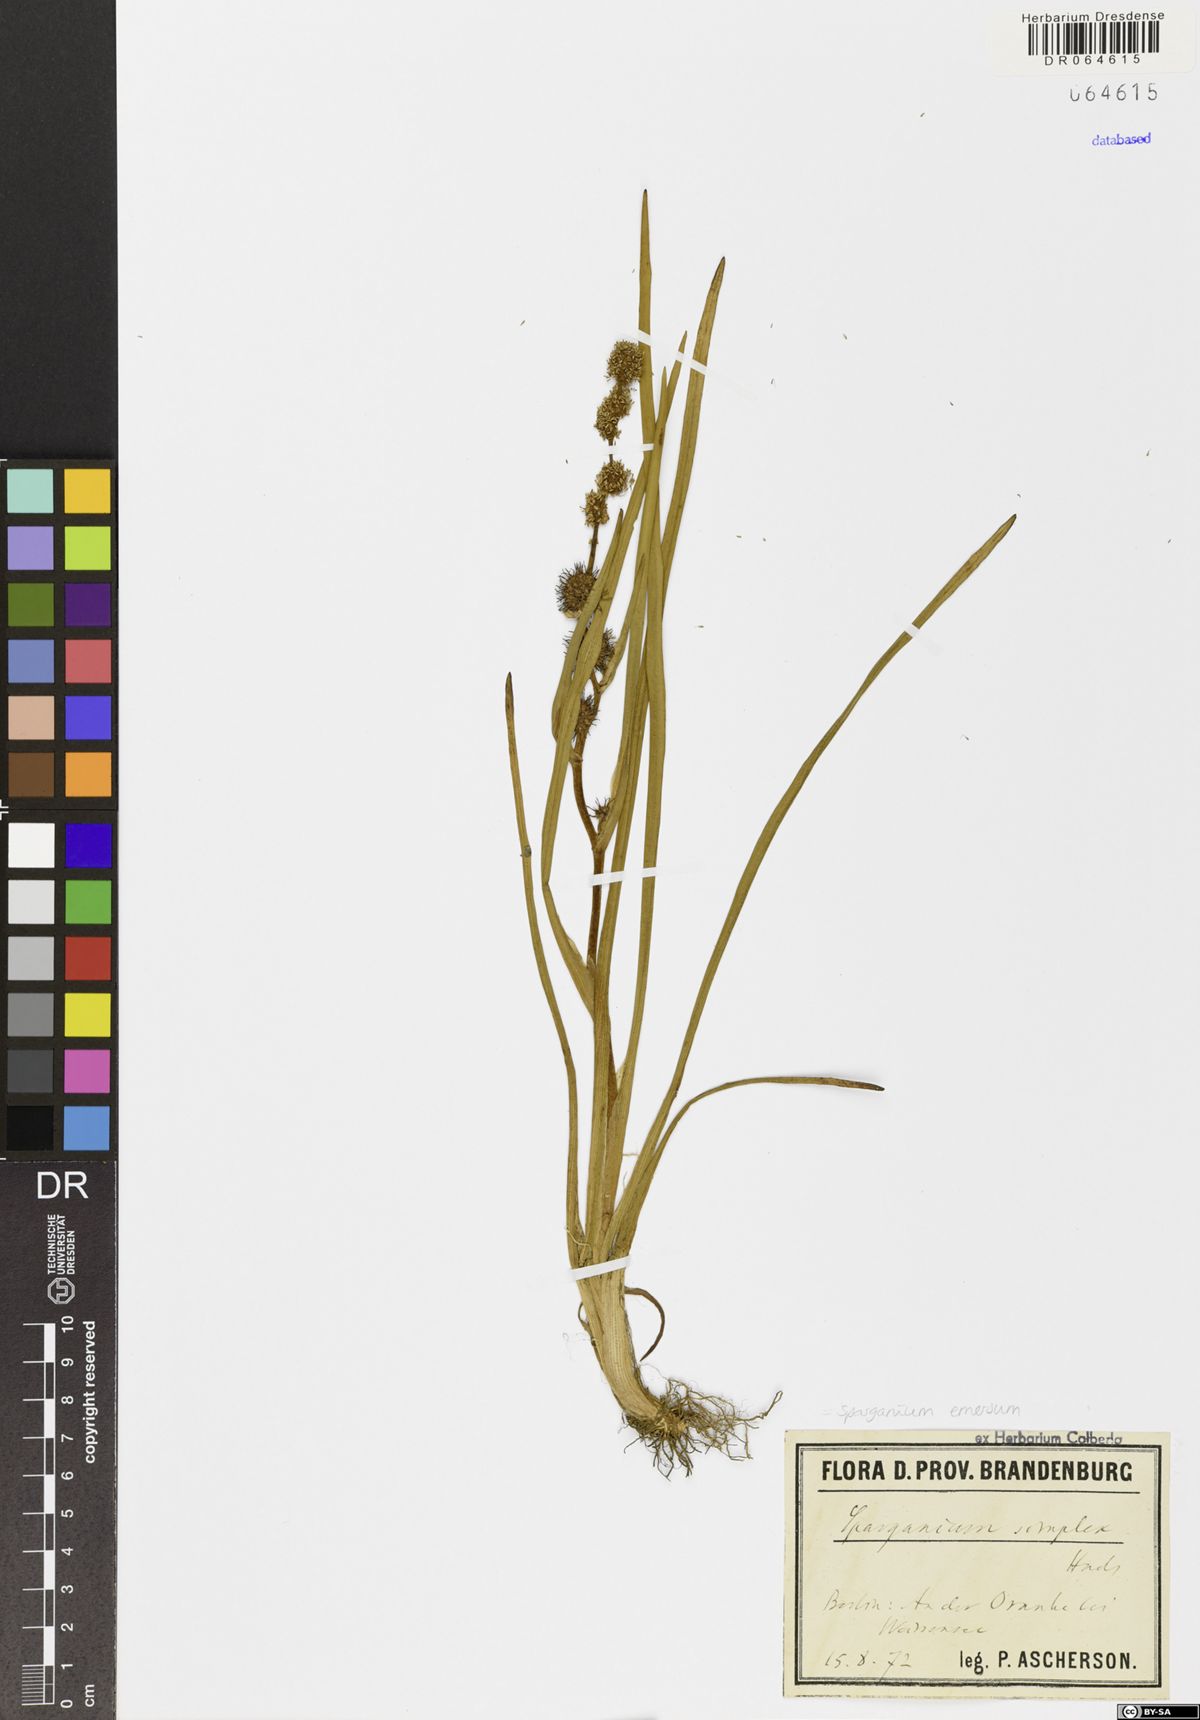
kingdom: Plantae
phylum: Tracheophyta
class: Liliopsida
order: Poales
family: Typhaceae
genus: Sparganium
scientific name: Sparganium emersum
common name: Unbranched bur-reed
